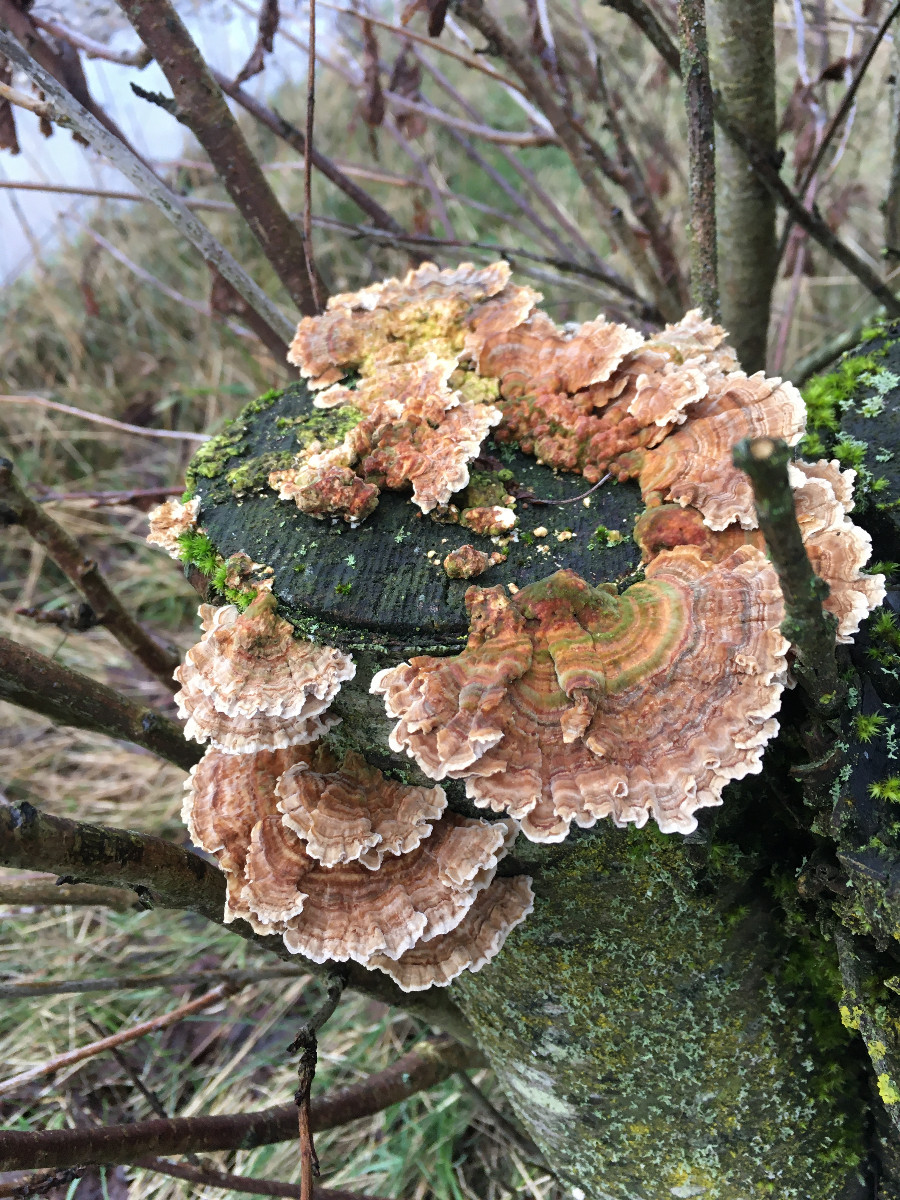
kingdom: Fungi
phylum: Basidiomycota
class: Agaricomycetes
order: Polyporales
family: Polyporaceae
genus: Trametes
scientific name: Trametes ochracea
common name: bæltet læderporesvamp
